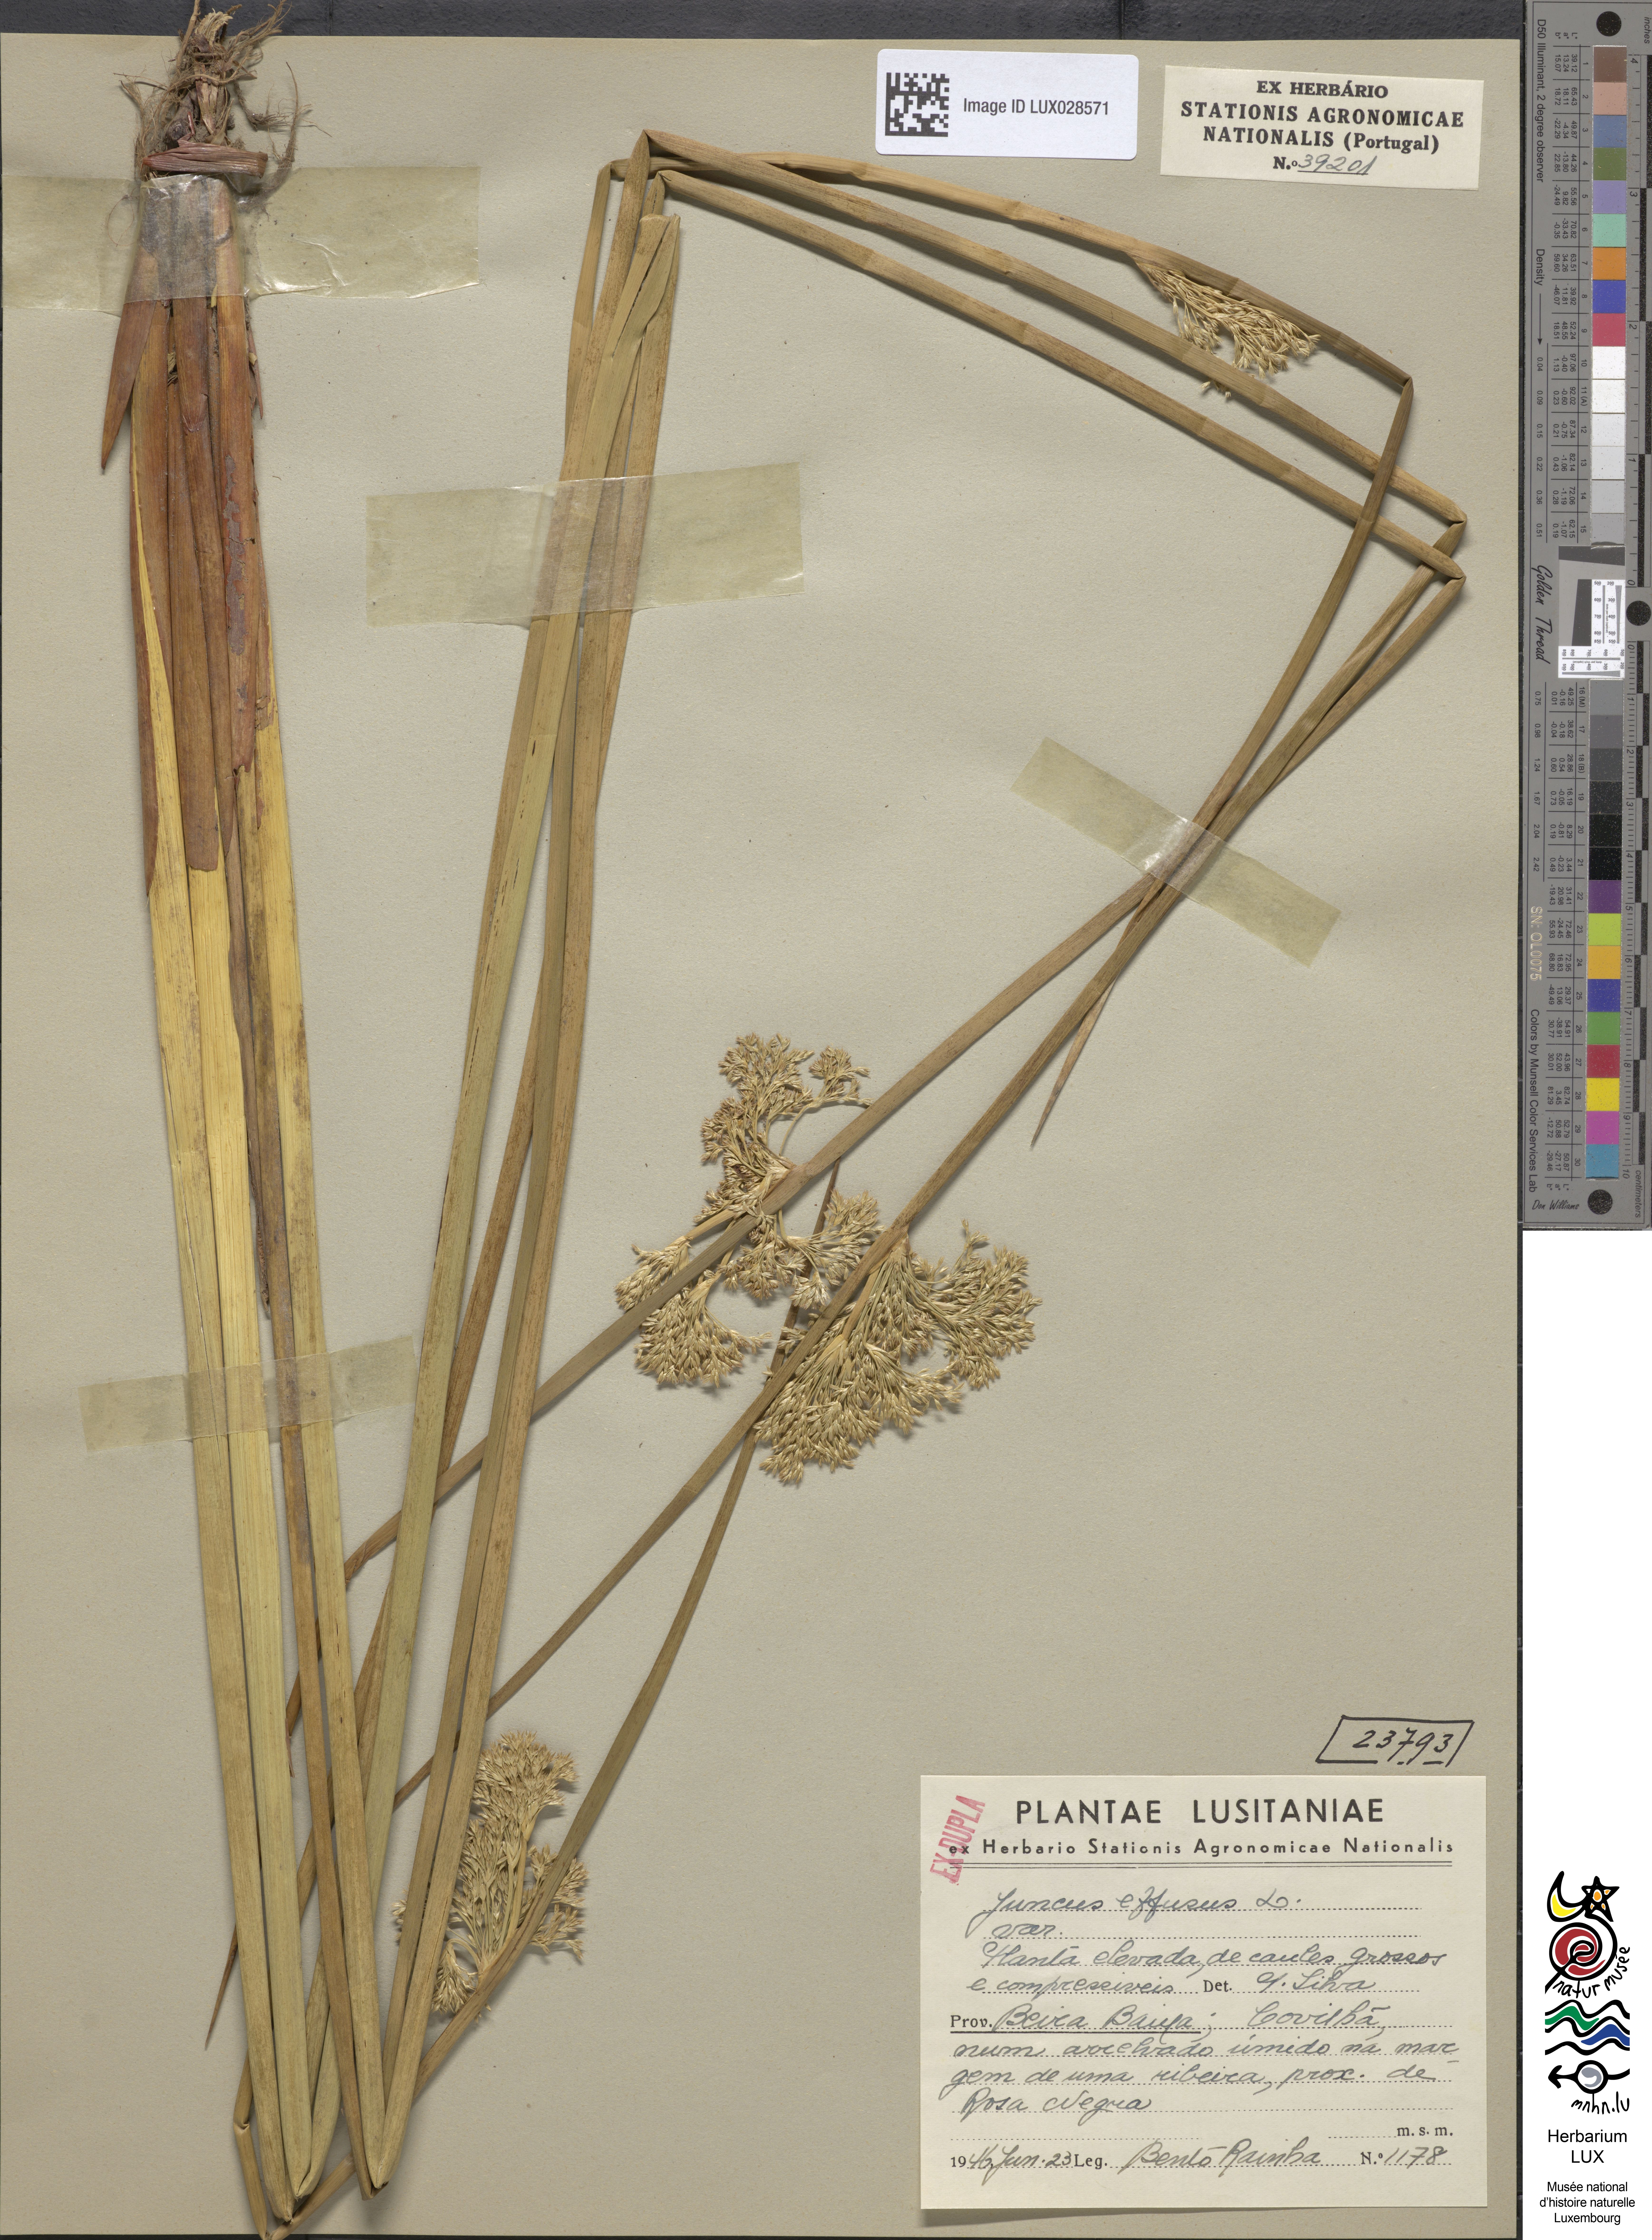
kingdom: Plantae
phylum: Tracheophyta
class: Liliopsida
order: Poales
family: Juncaceae
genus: Juncus
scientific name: Juncus effusus
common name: Soft rush
